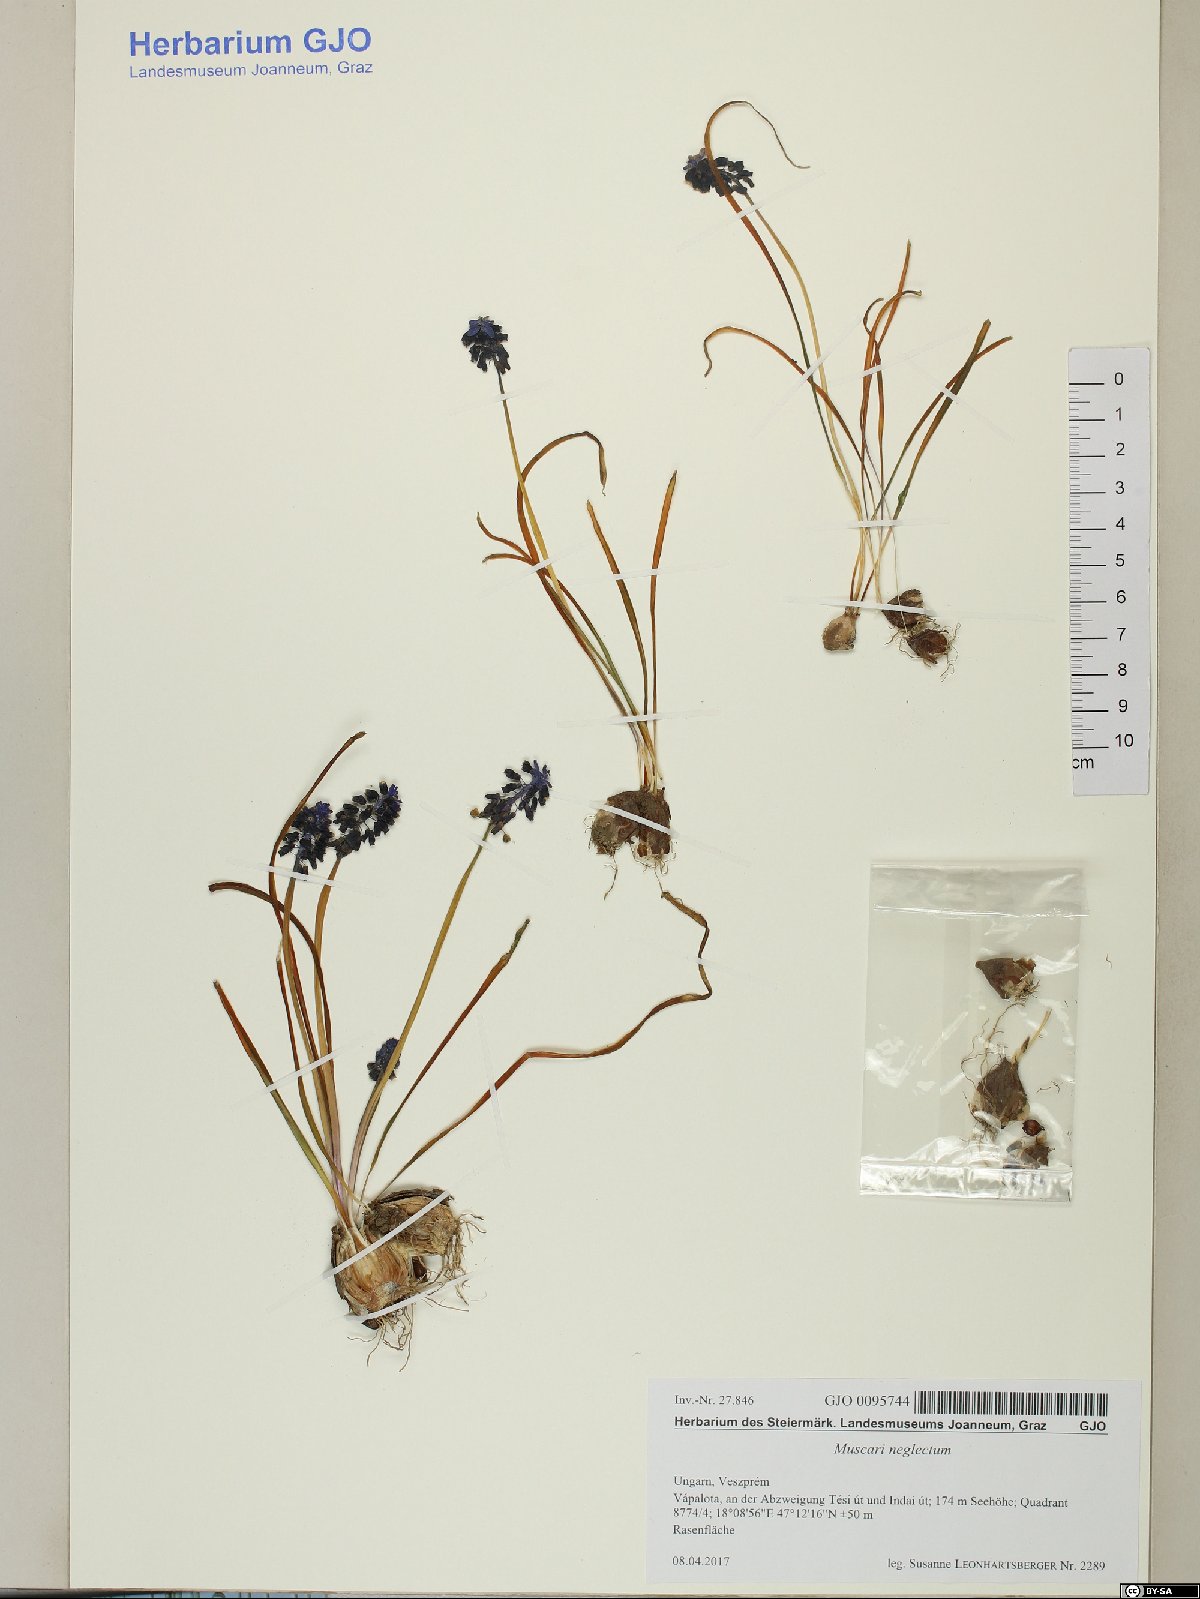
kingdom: Plantae
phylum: Tracheophyta
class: Liliopsida
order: Asparagales
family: Asparagaceae
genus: Muscari
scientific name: Muscari neglectum
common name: Grape-hyacinth
